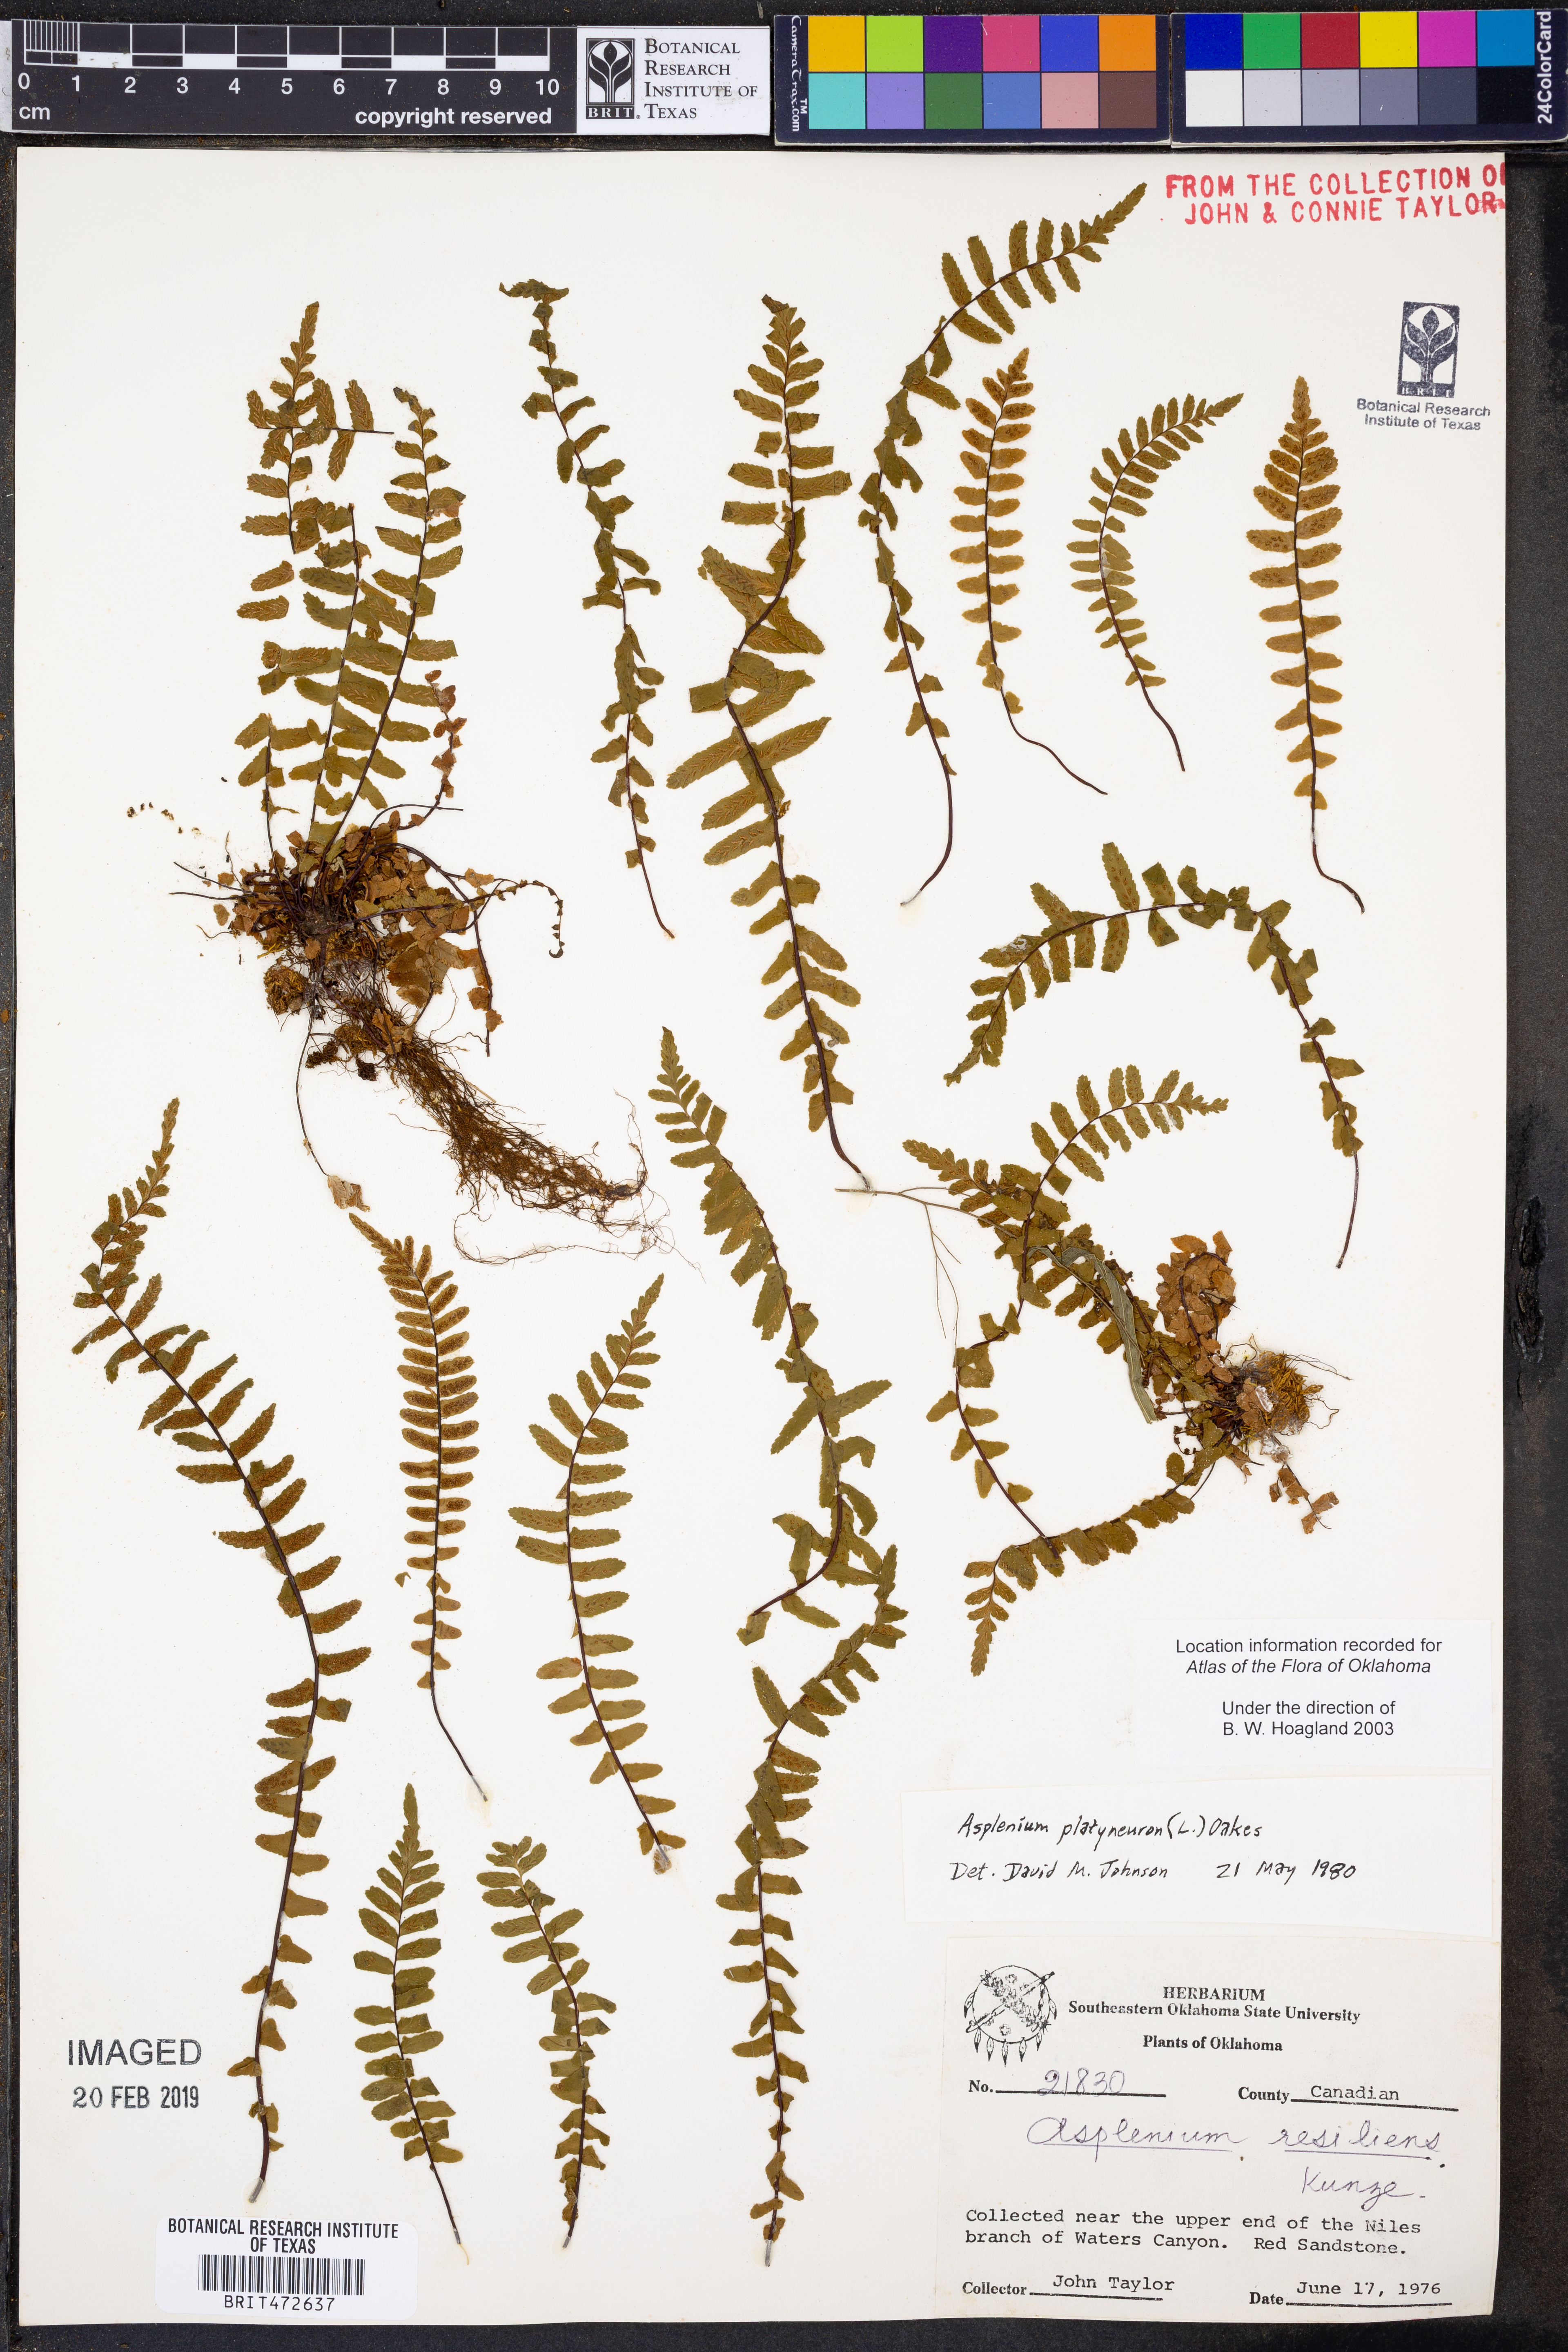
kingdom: Plantae
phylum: Tracheophyta
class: Polypodiopsida
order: Polypodiales
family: Aspleniaceae
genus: Asplenium
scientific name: Asplenium platyneuron
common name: Ebony spleenwort
